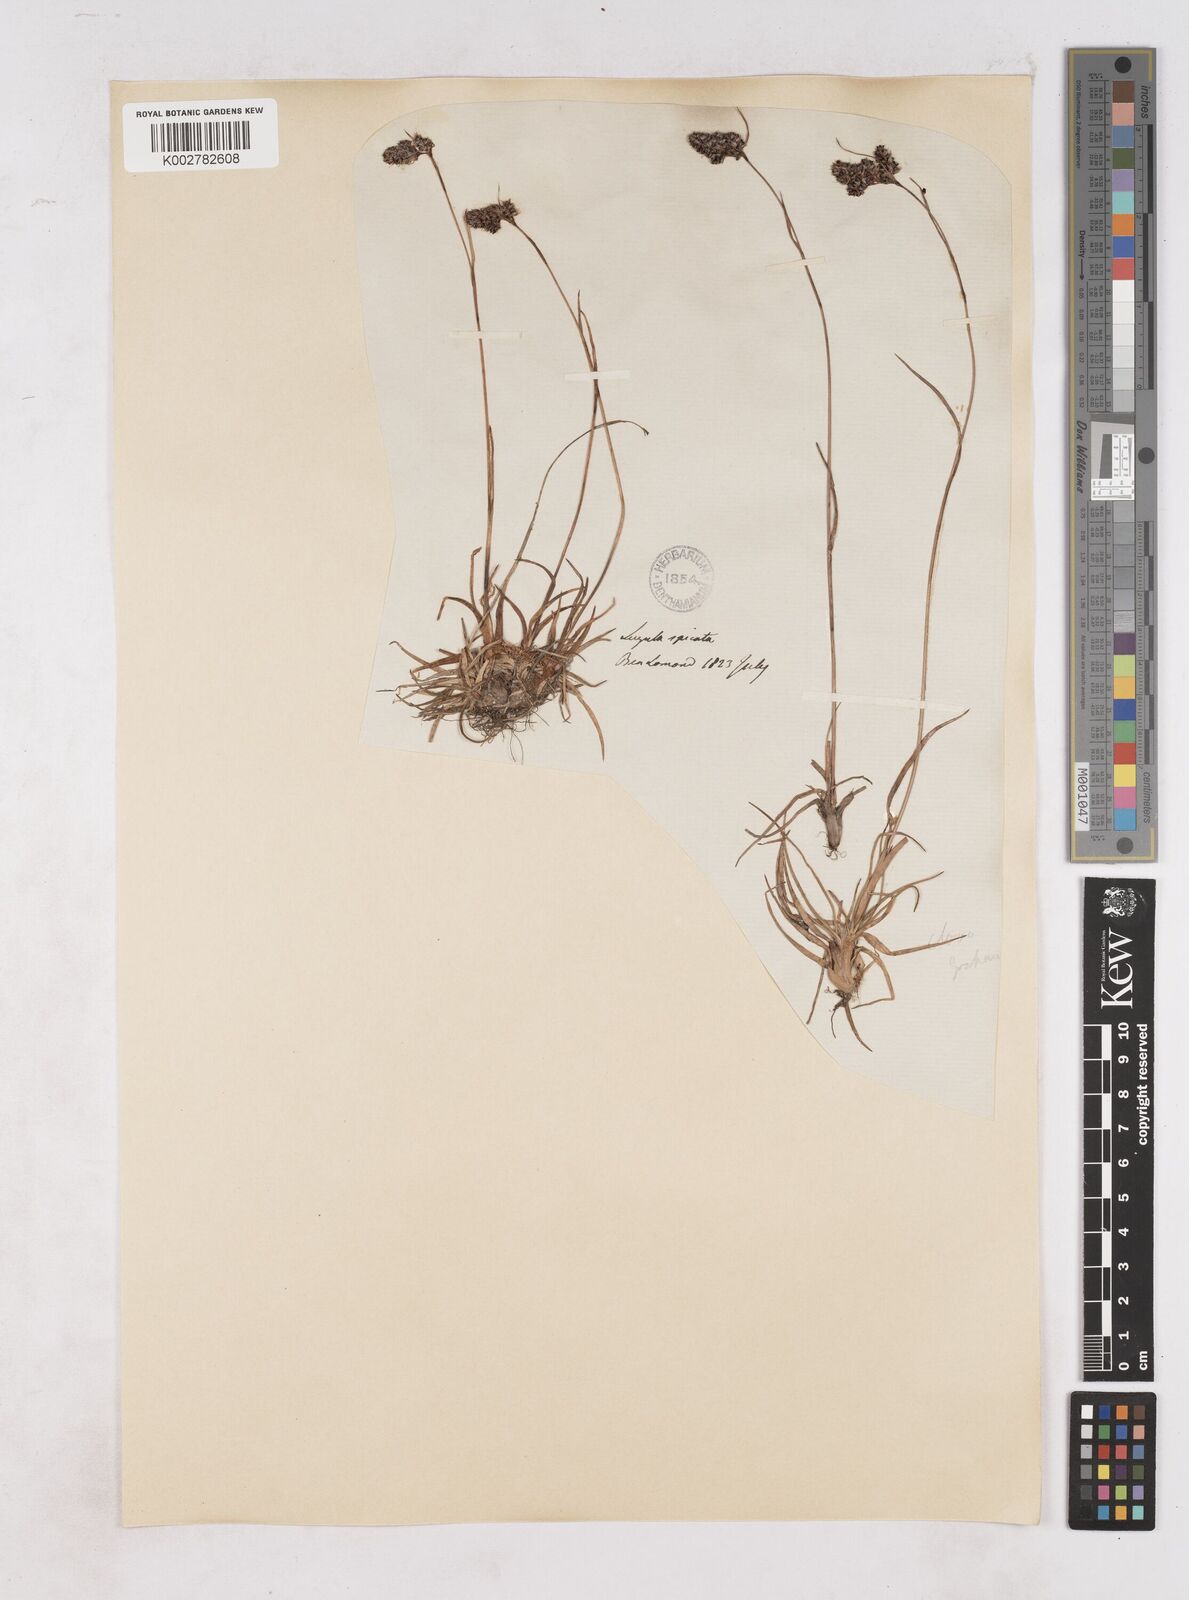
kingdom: Plantae
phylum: Tracheophyta
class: Liliopsida
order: Poales
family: Juncaceae
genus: Luzula
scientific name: Luzula spicata
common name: Spiked wood-rush
